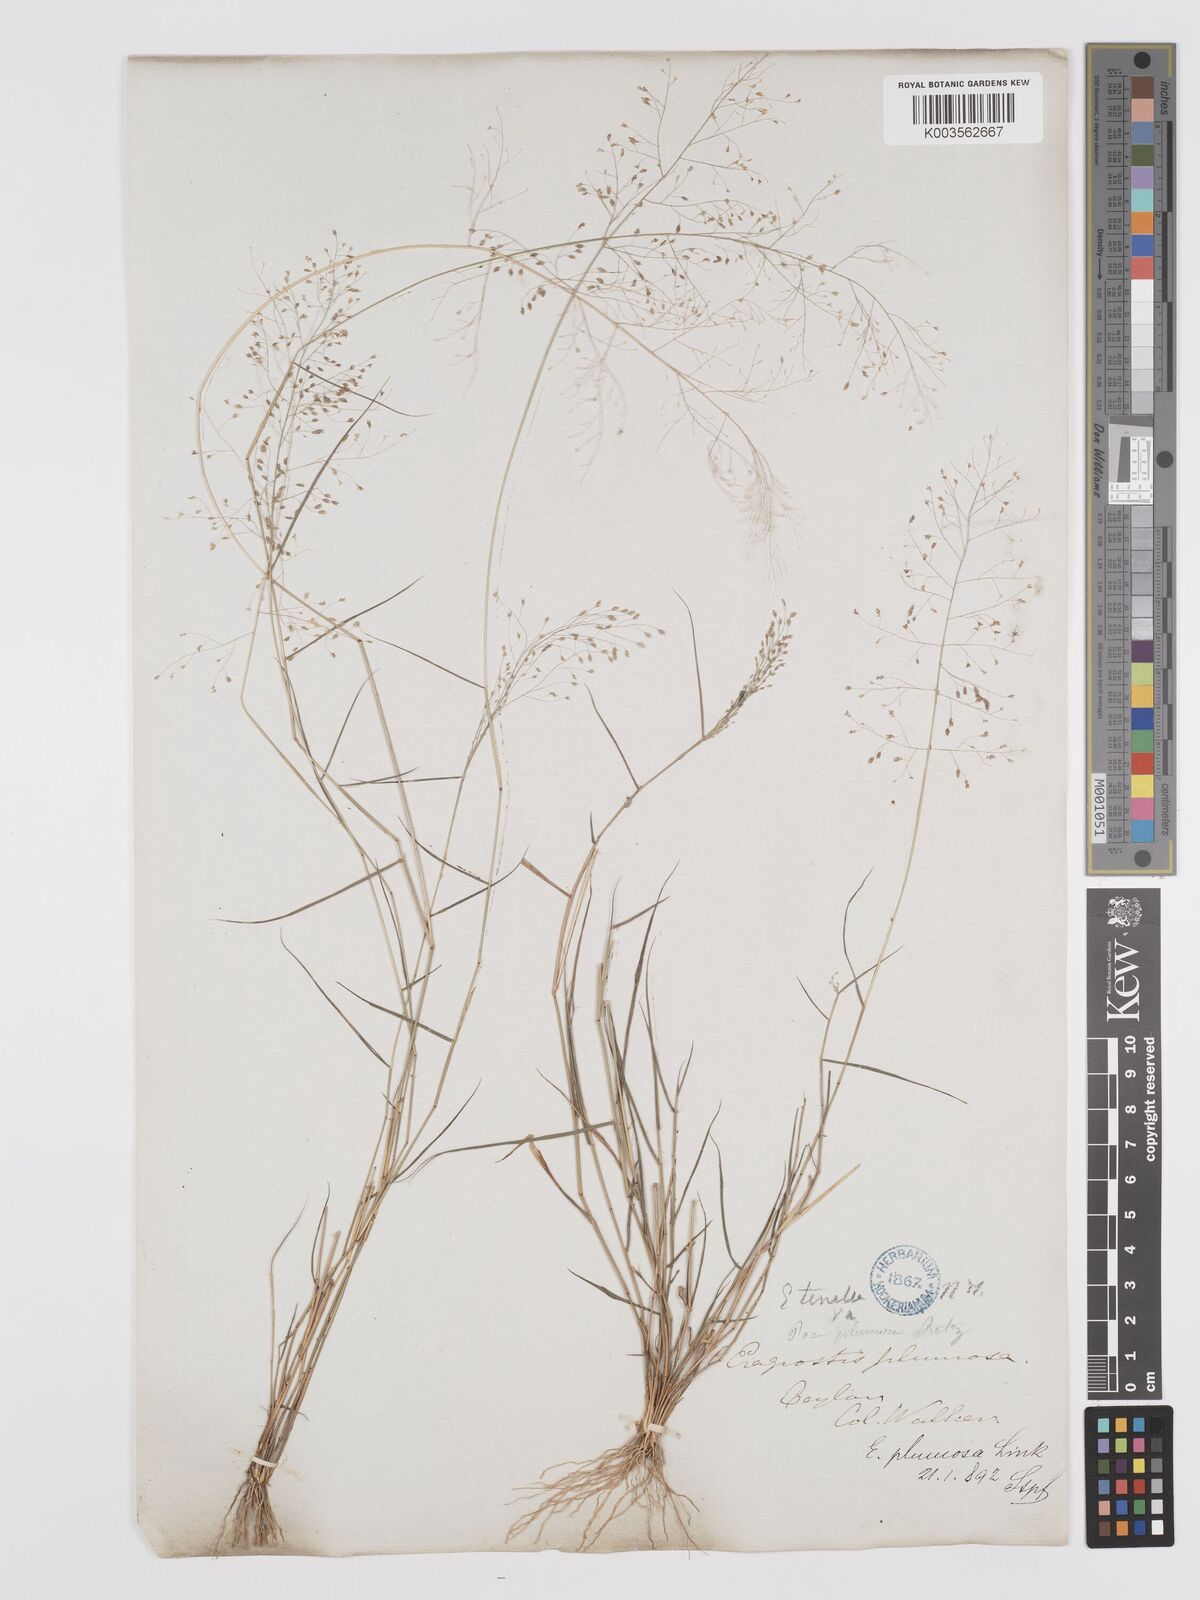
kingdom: Plantae
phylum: Tracheophyta
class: Liliopsida
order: Poales
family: Poaceae
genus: Eragrostis
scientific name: Eragrostis tenella
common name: Japanese lovegrass
